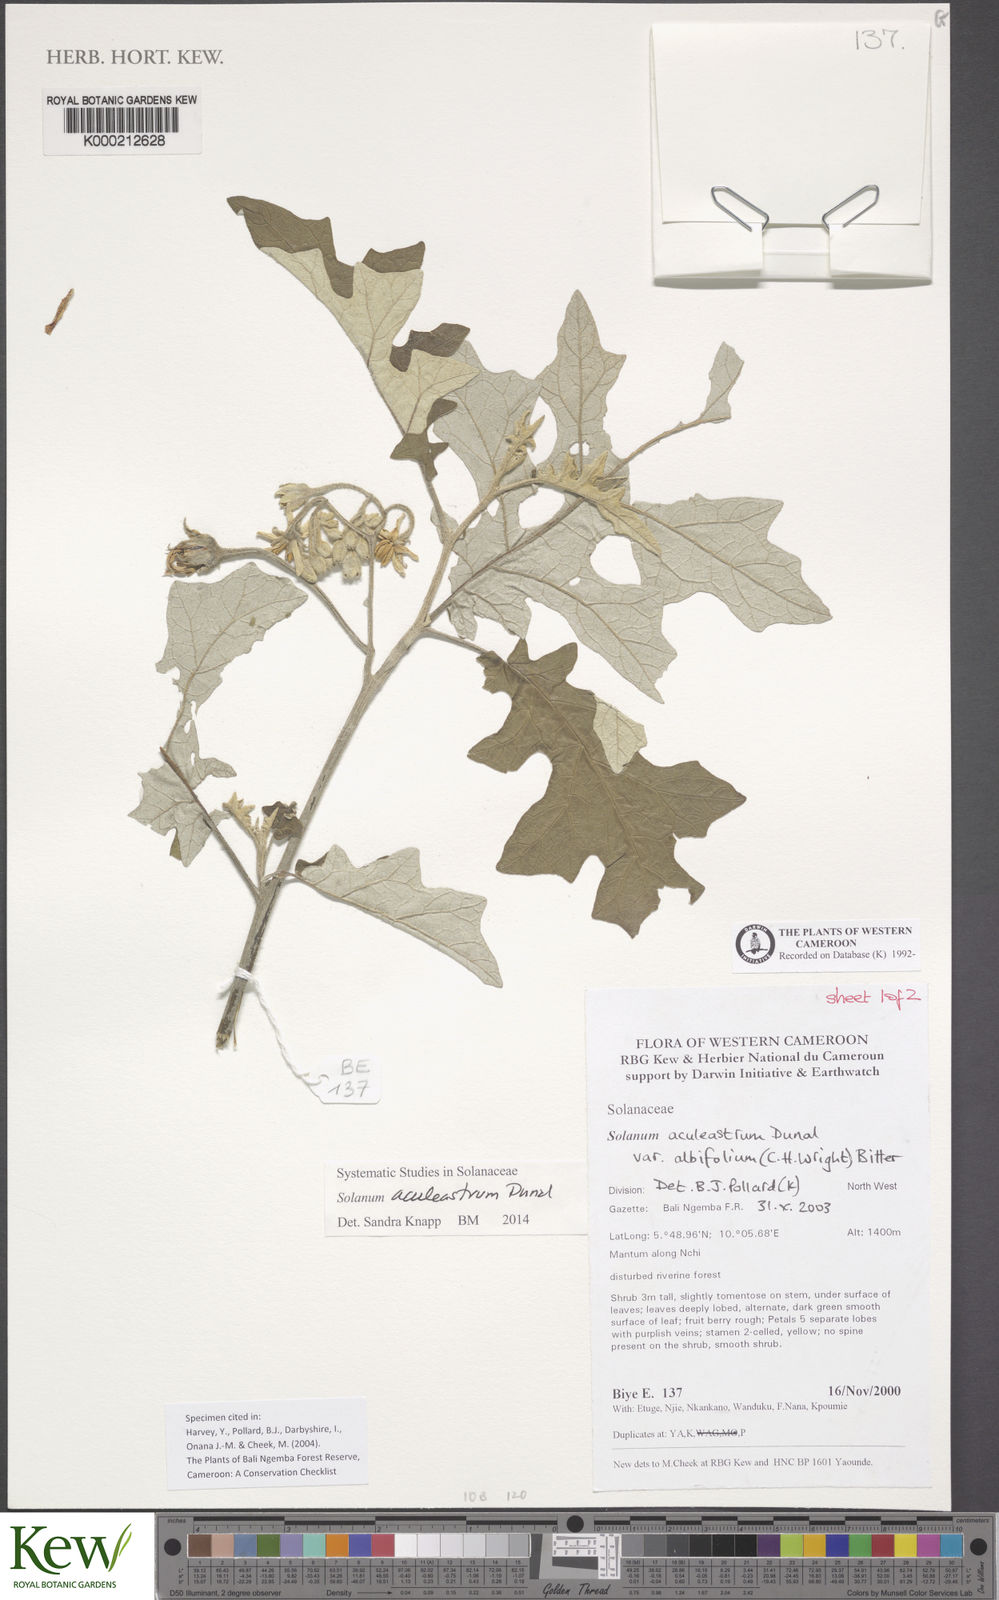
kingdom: Plantae
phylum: Tracheophyta
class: Magnoliopsida
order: Solanales
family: Solanaceae
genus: Solanum
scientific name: Solanum aculeastrum
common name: Goat bitter-apple
